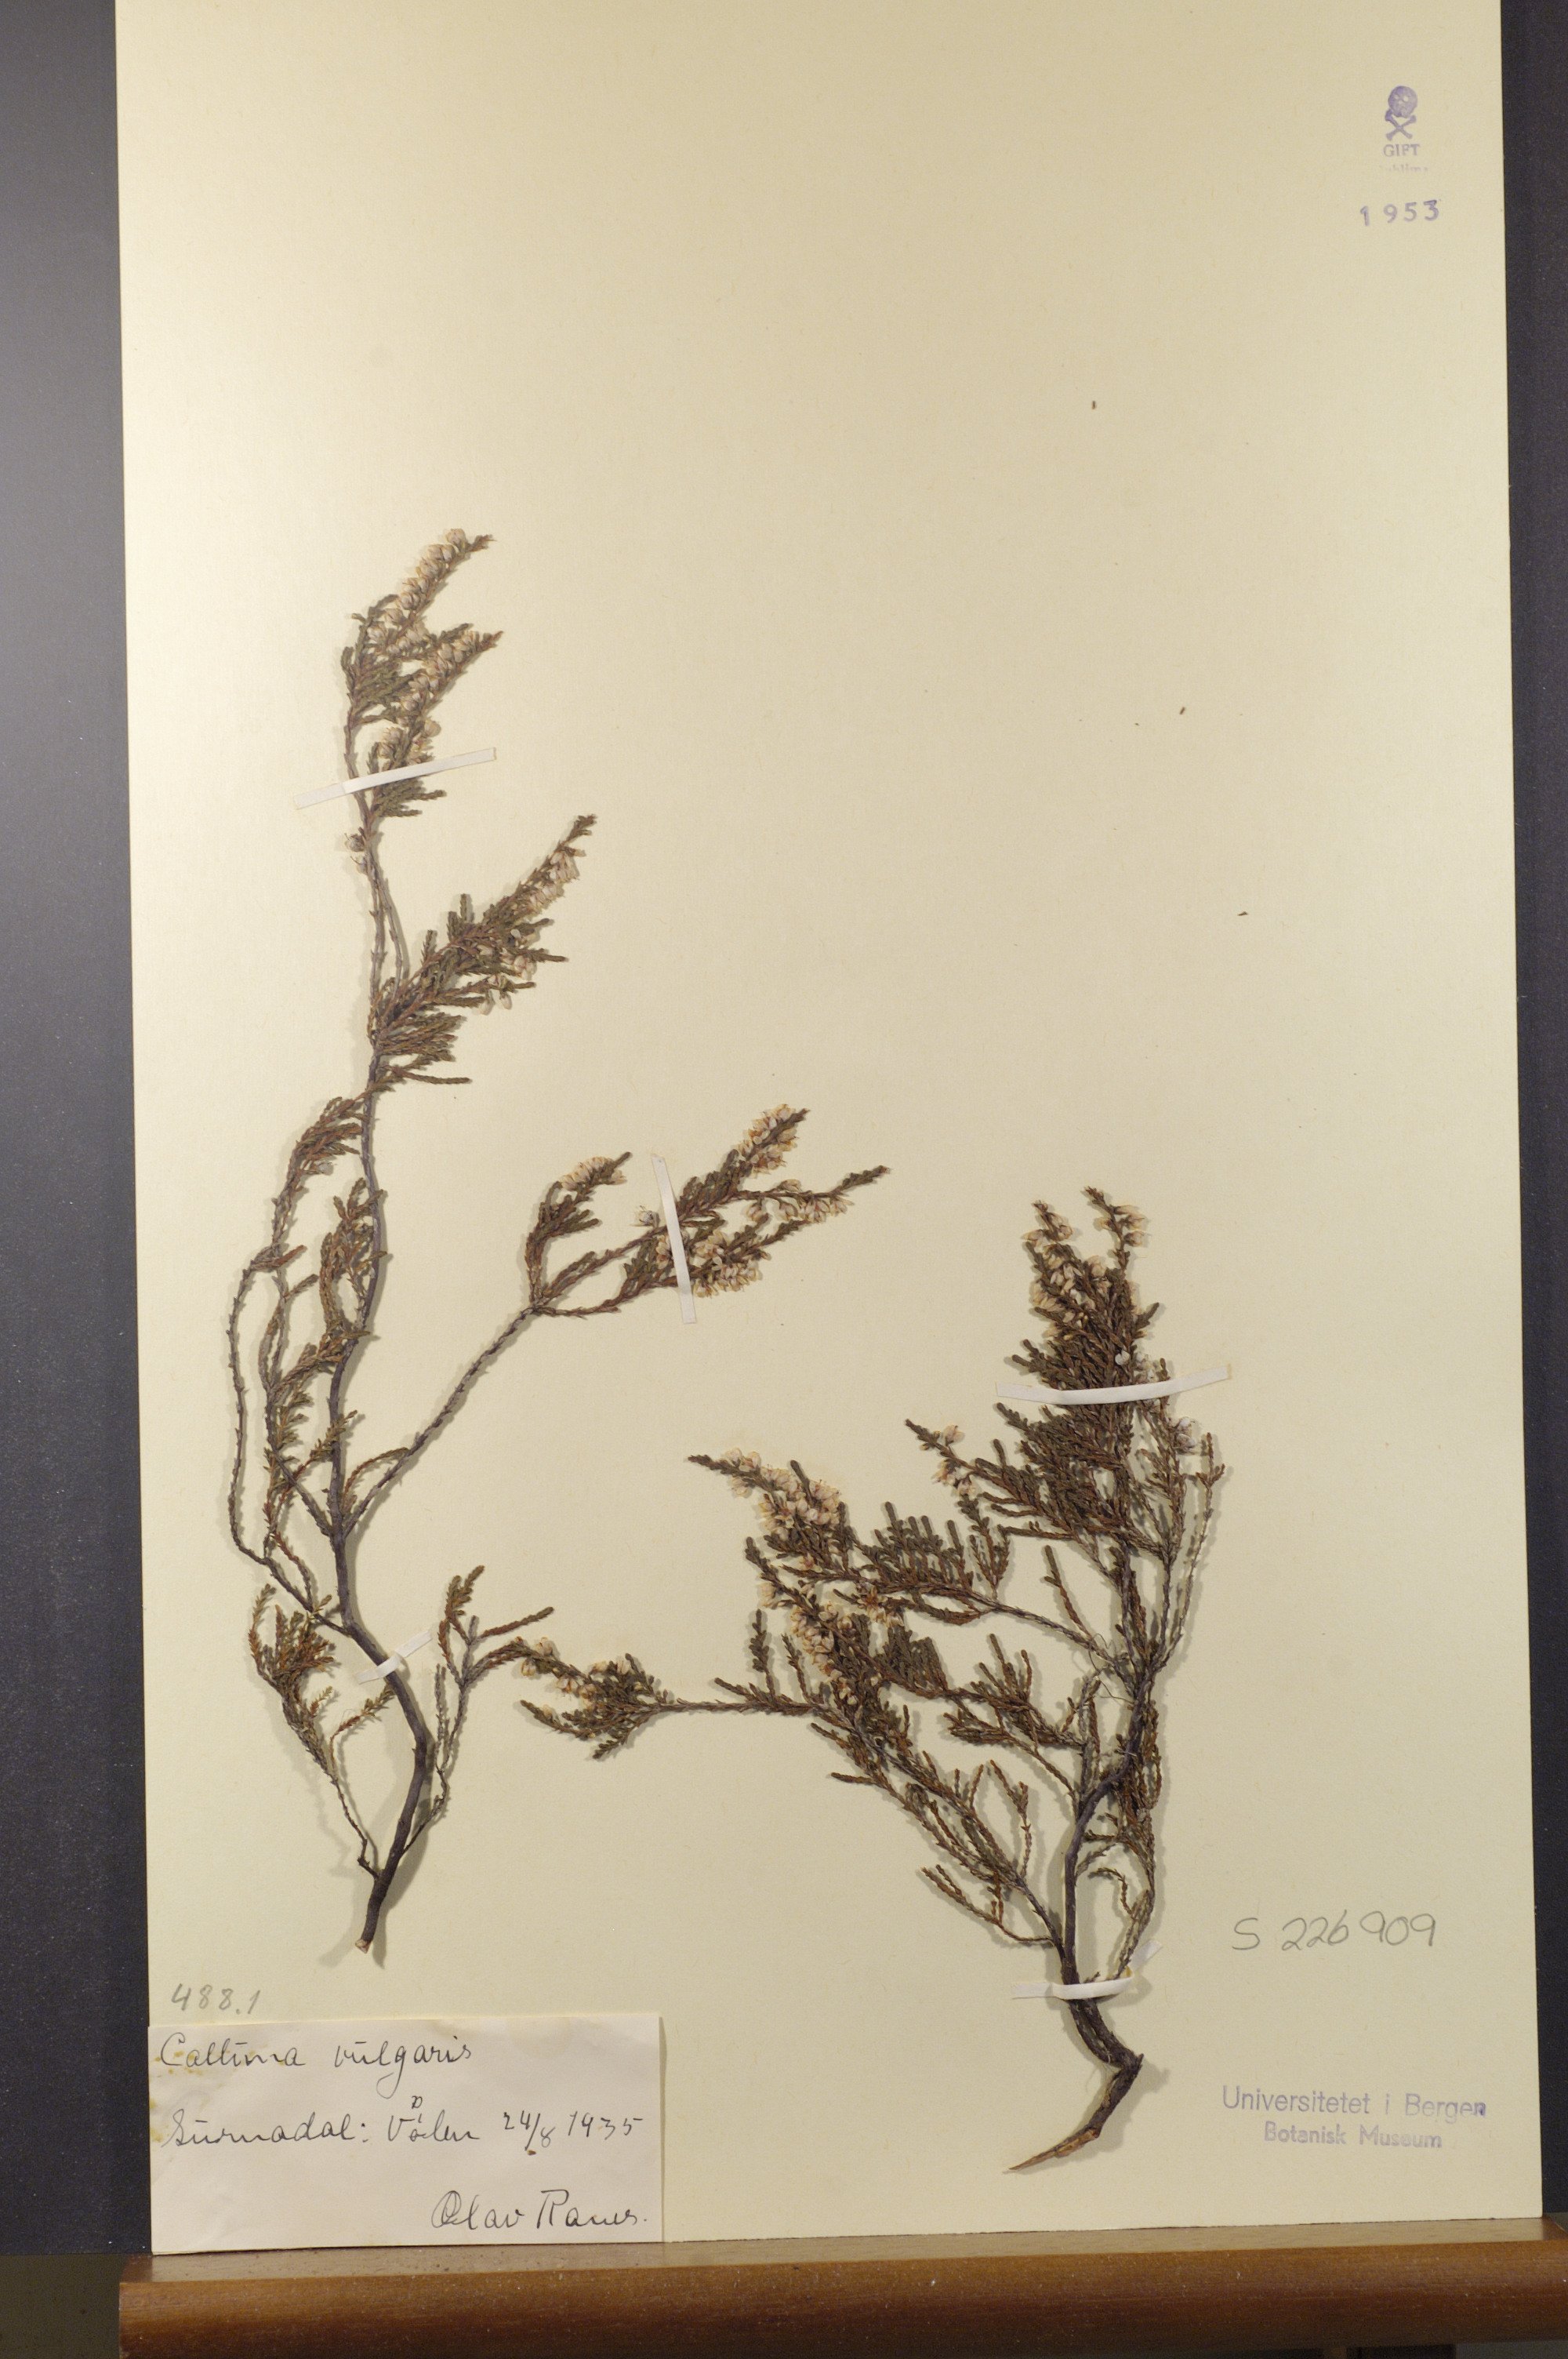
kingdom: Plantae
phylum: Tracheophyta
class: Magnoliopsida
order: Ericales
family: Ericaceae
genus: Calluna
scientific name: Calluna vulgaris
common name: Heather
